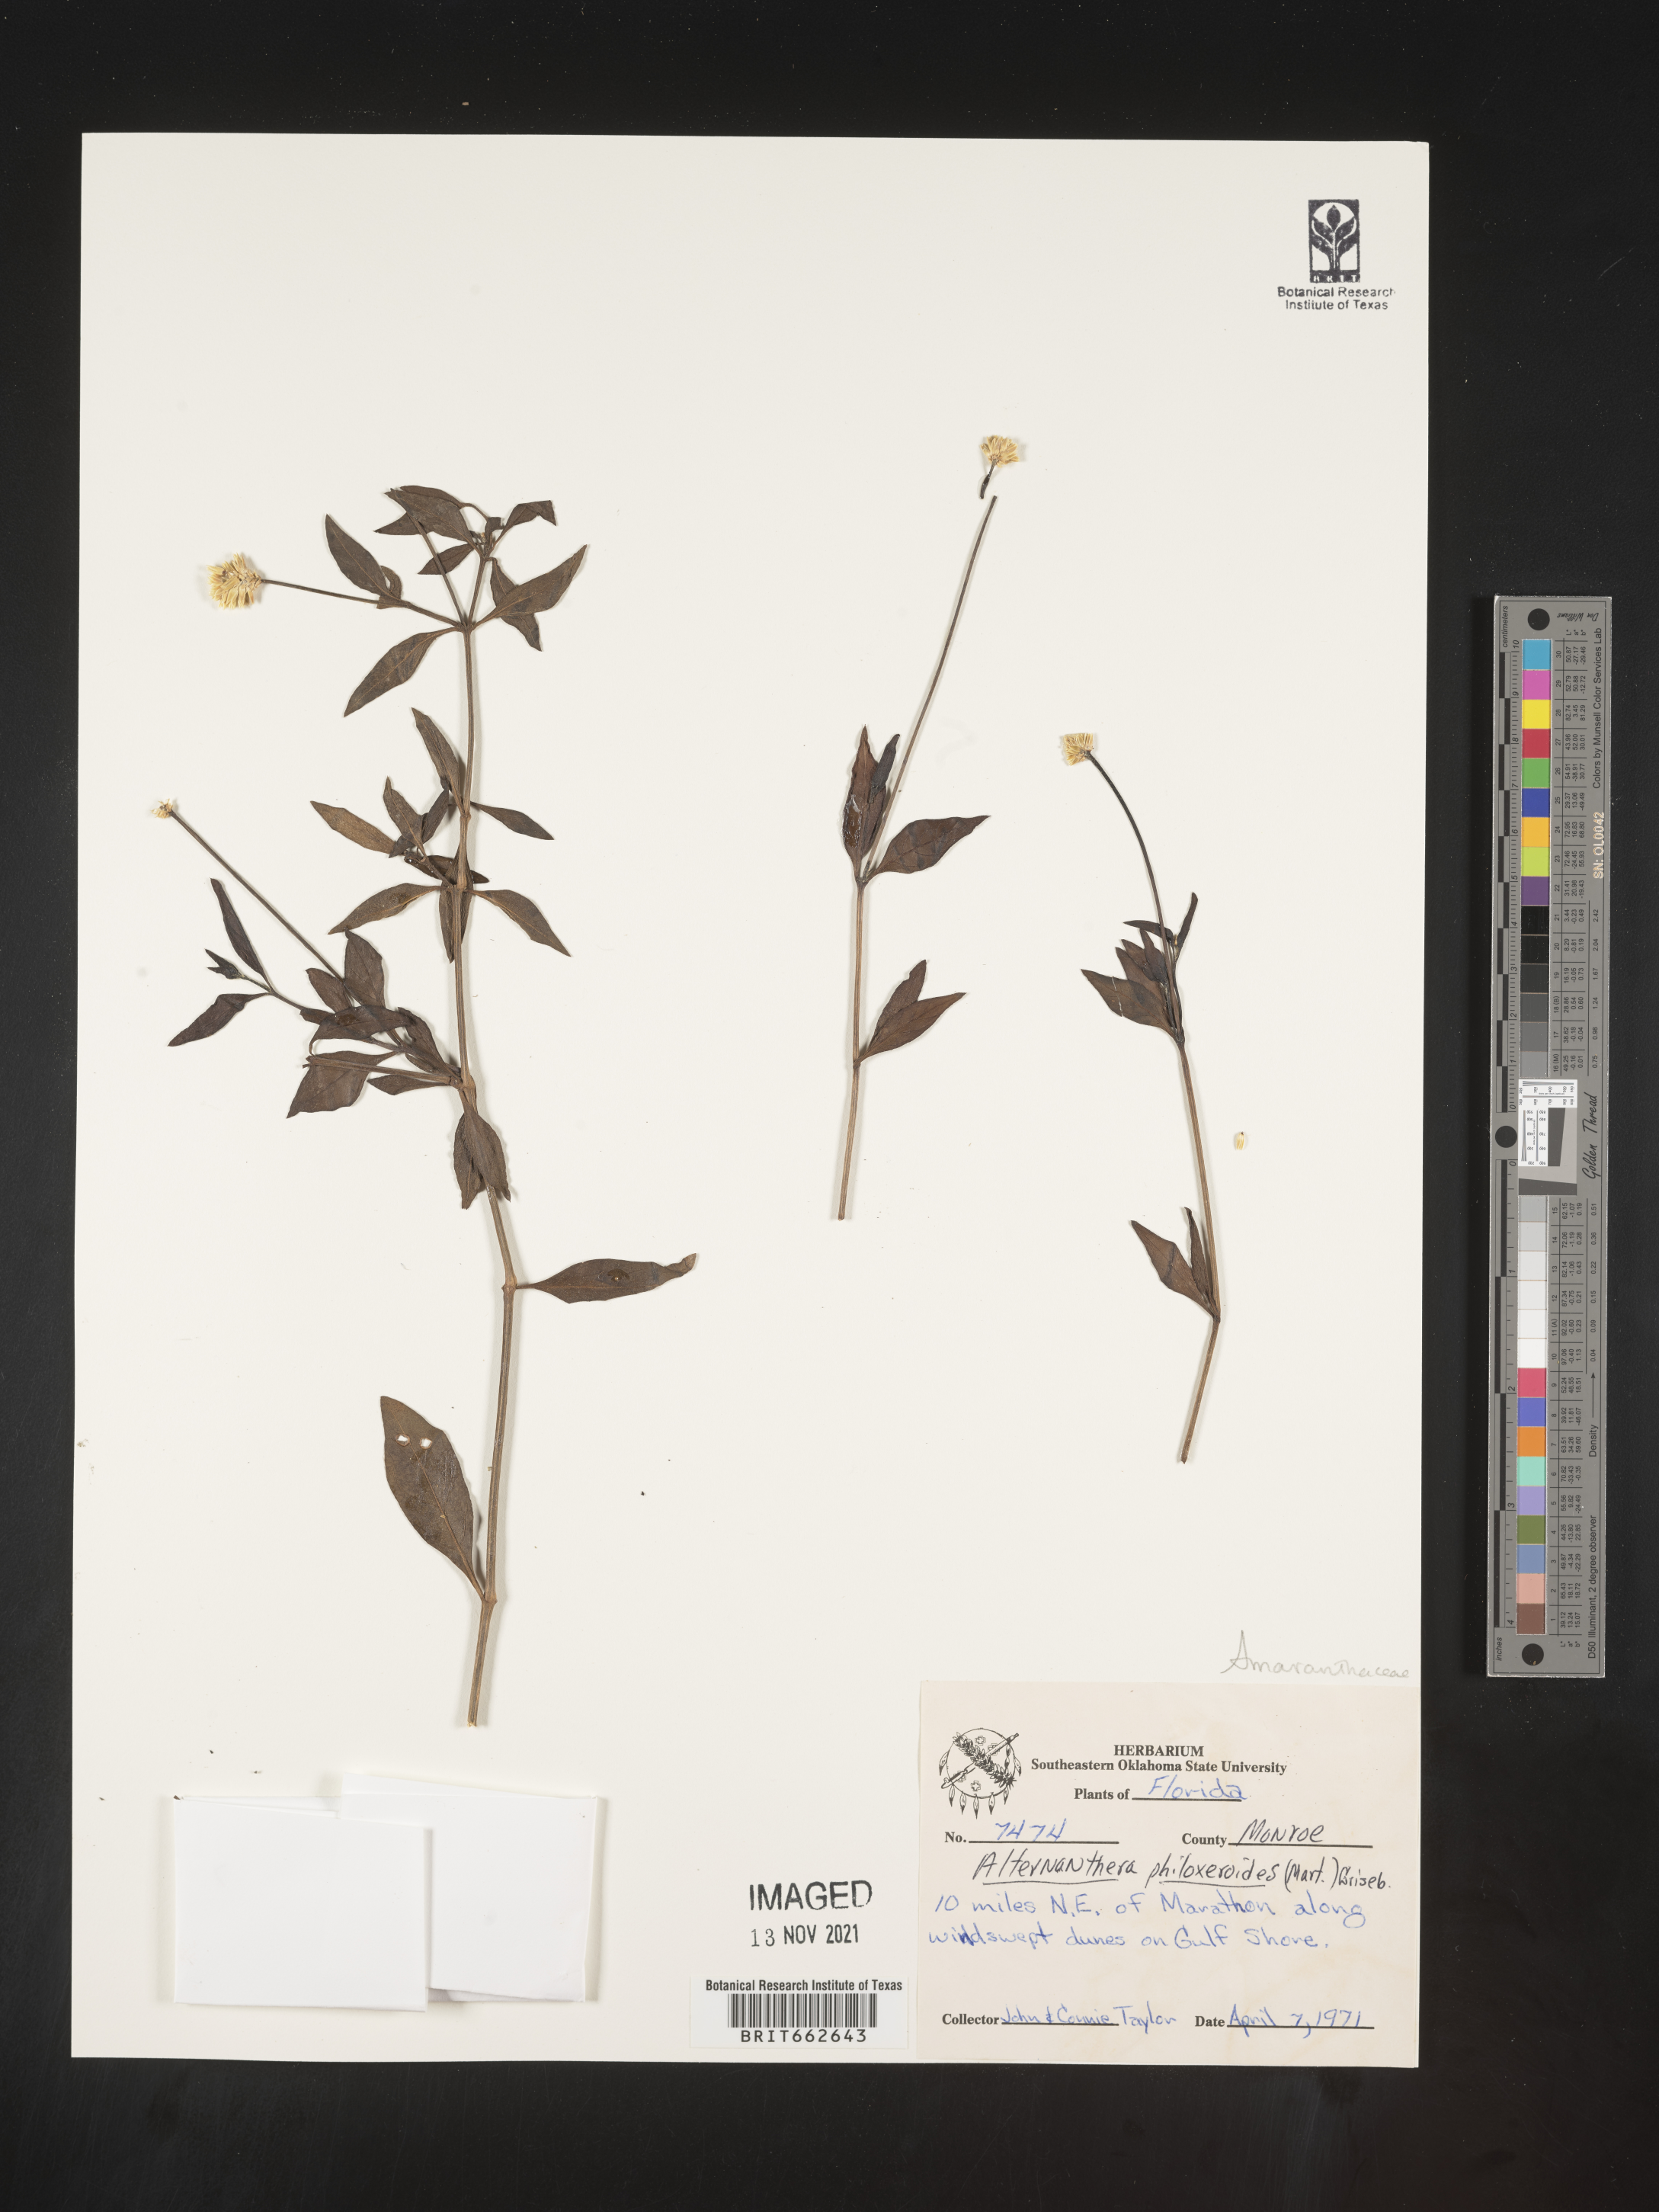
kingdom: Plantae
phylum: Tracheophyta
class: Magnoliopsida
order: Caryophyllales
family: Amaranthaceae
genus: Alternanthera
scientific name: Alternanthera philoxeroides
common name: Alligatorweed
